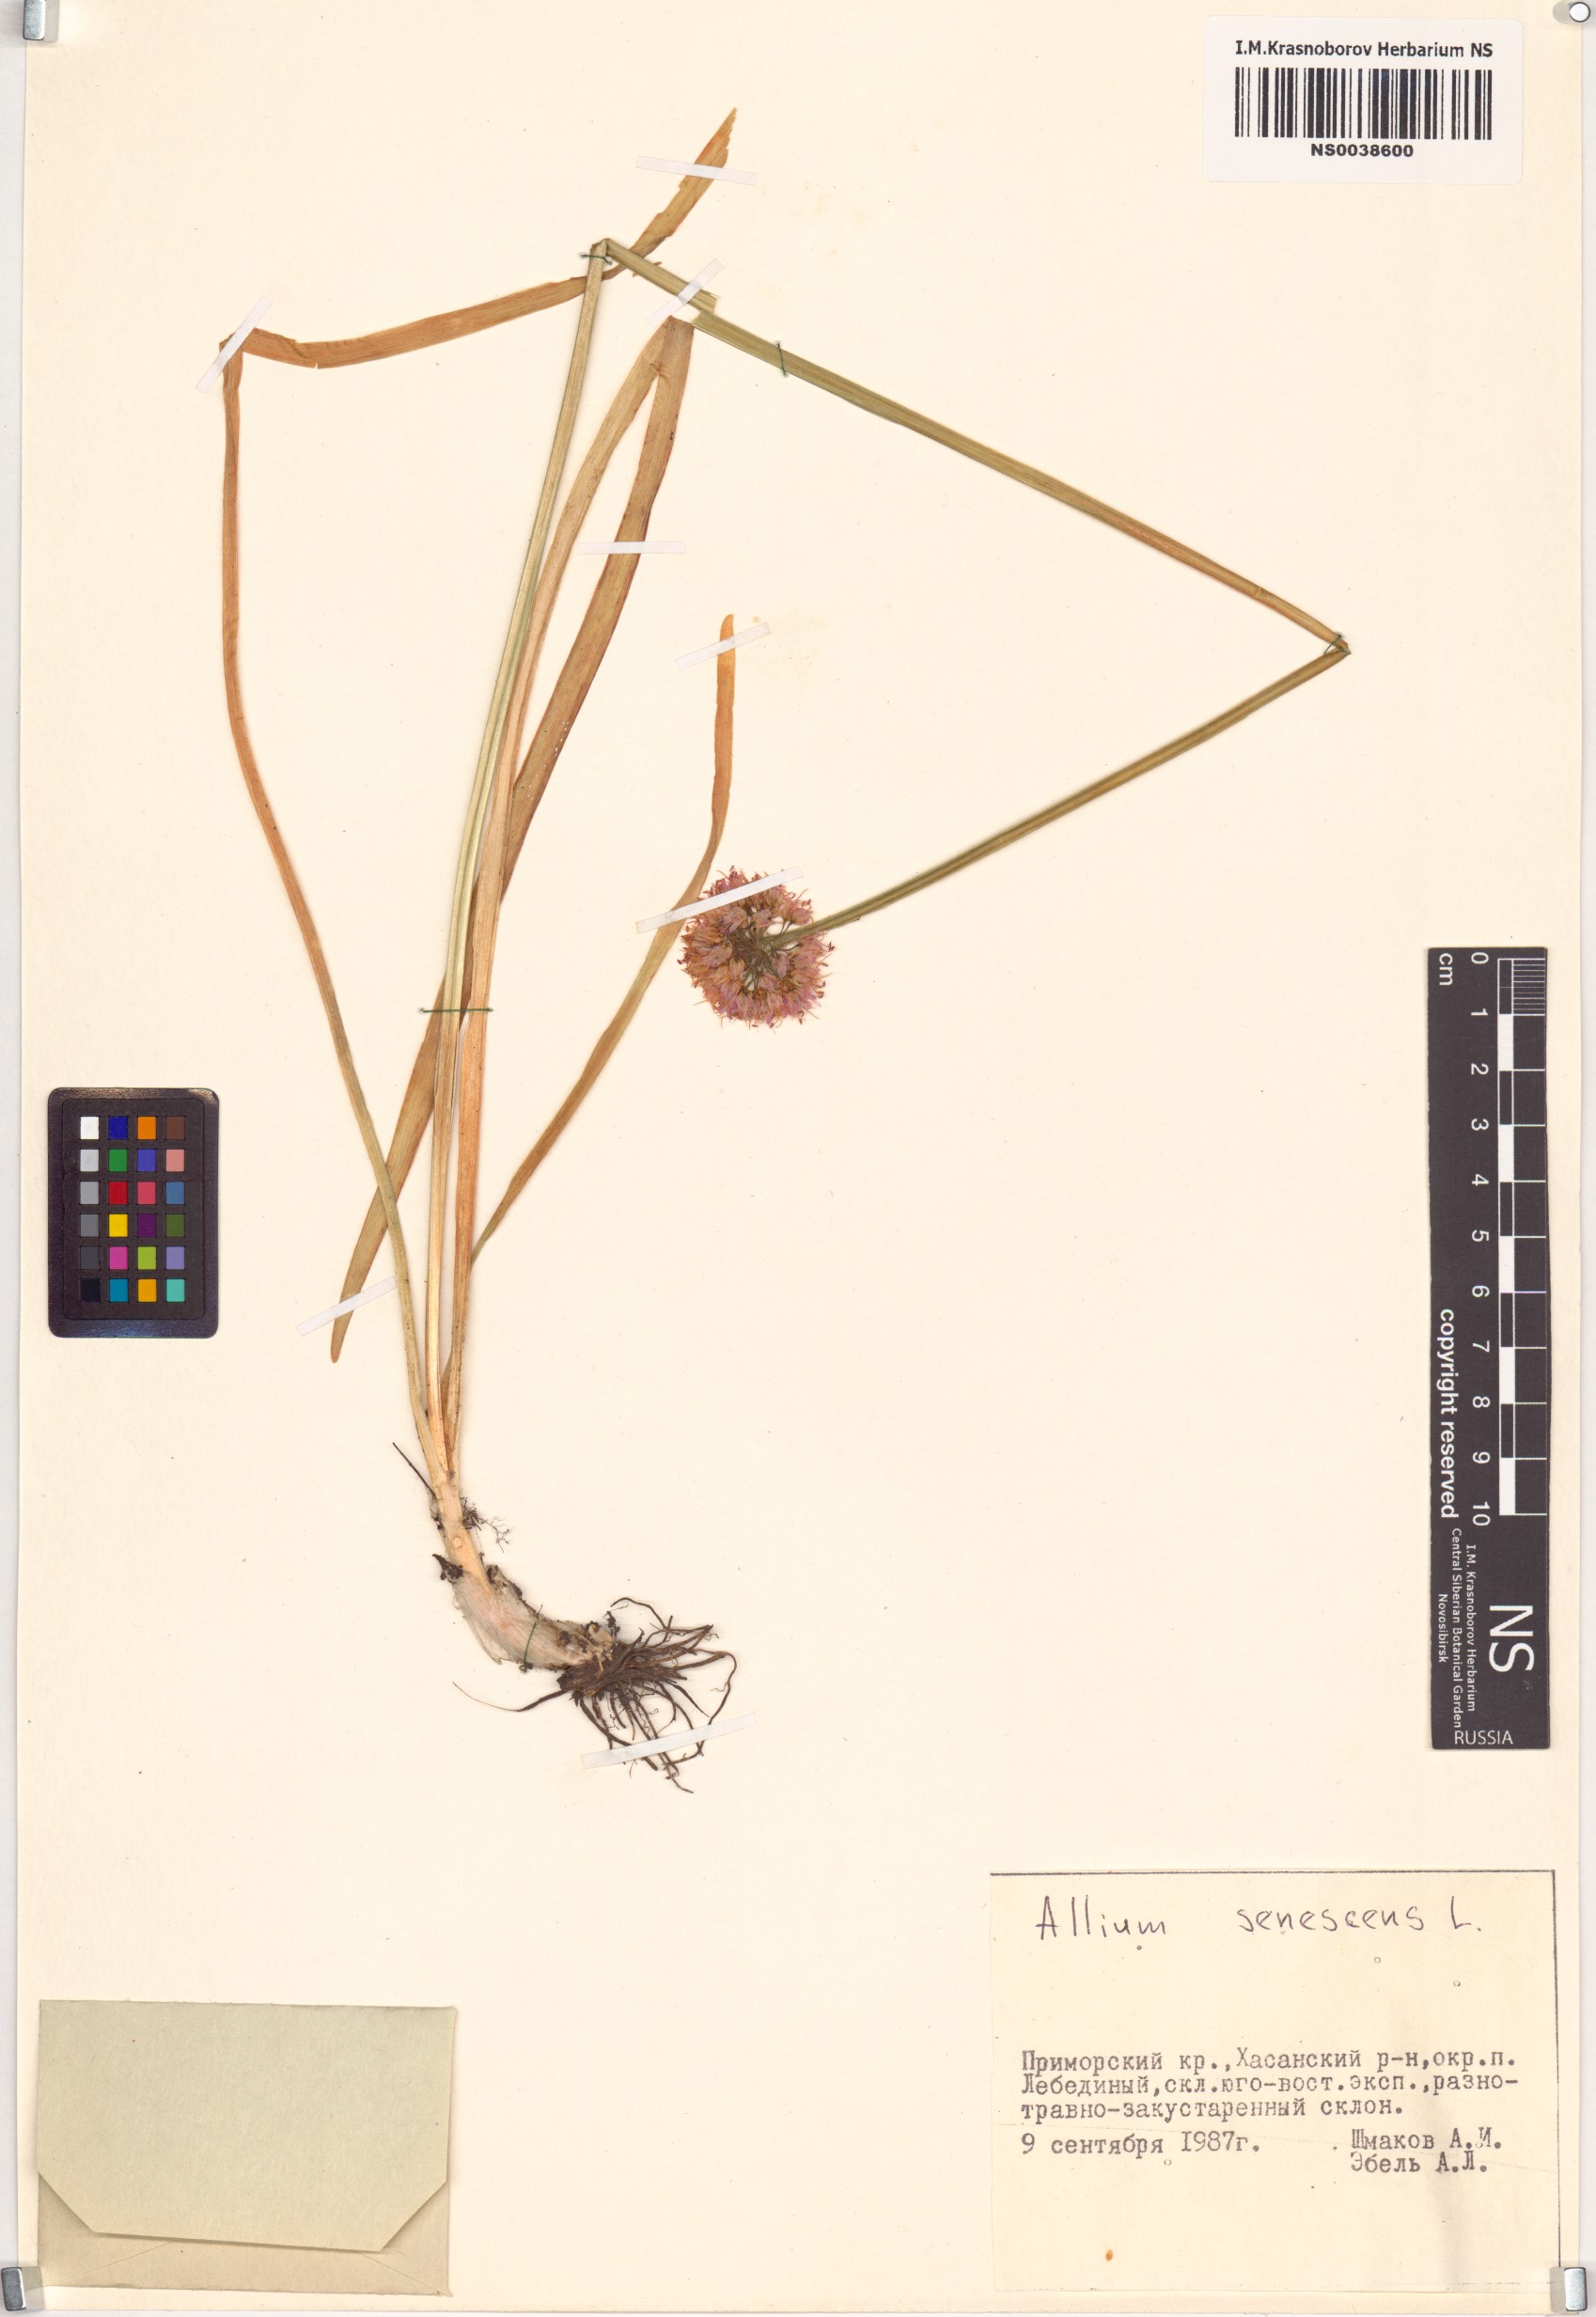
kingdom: Plantae
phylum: Tracheophyta
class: Liliopsida
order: Asparagales
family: Amaryllidaceae
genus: Allium
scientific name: Allium senescens
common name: German garlic
